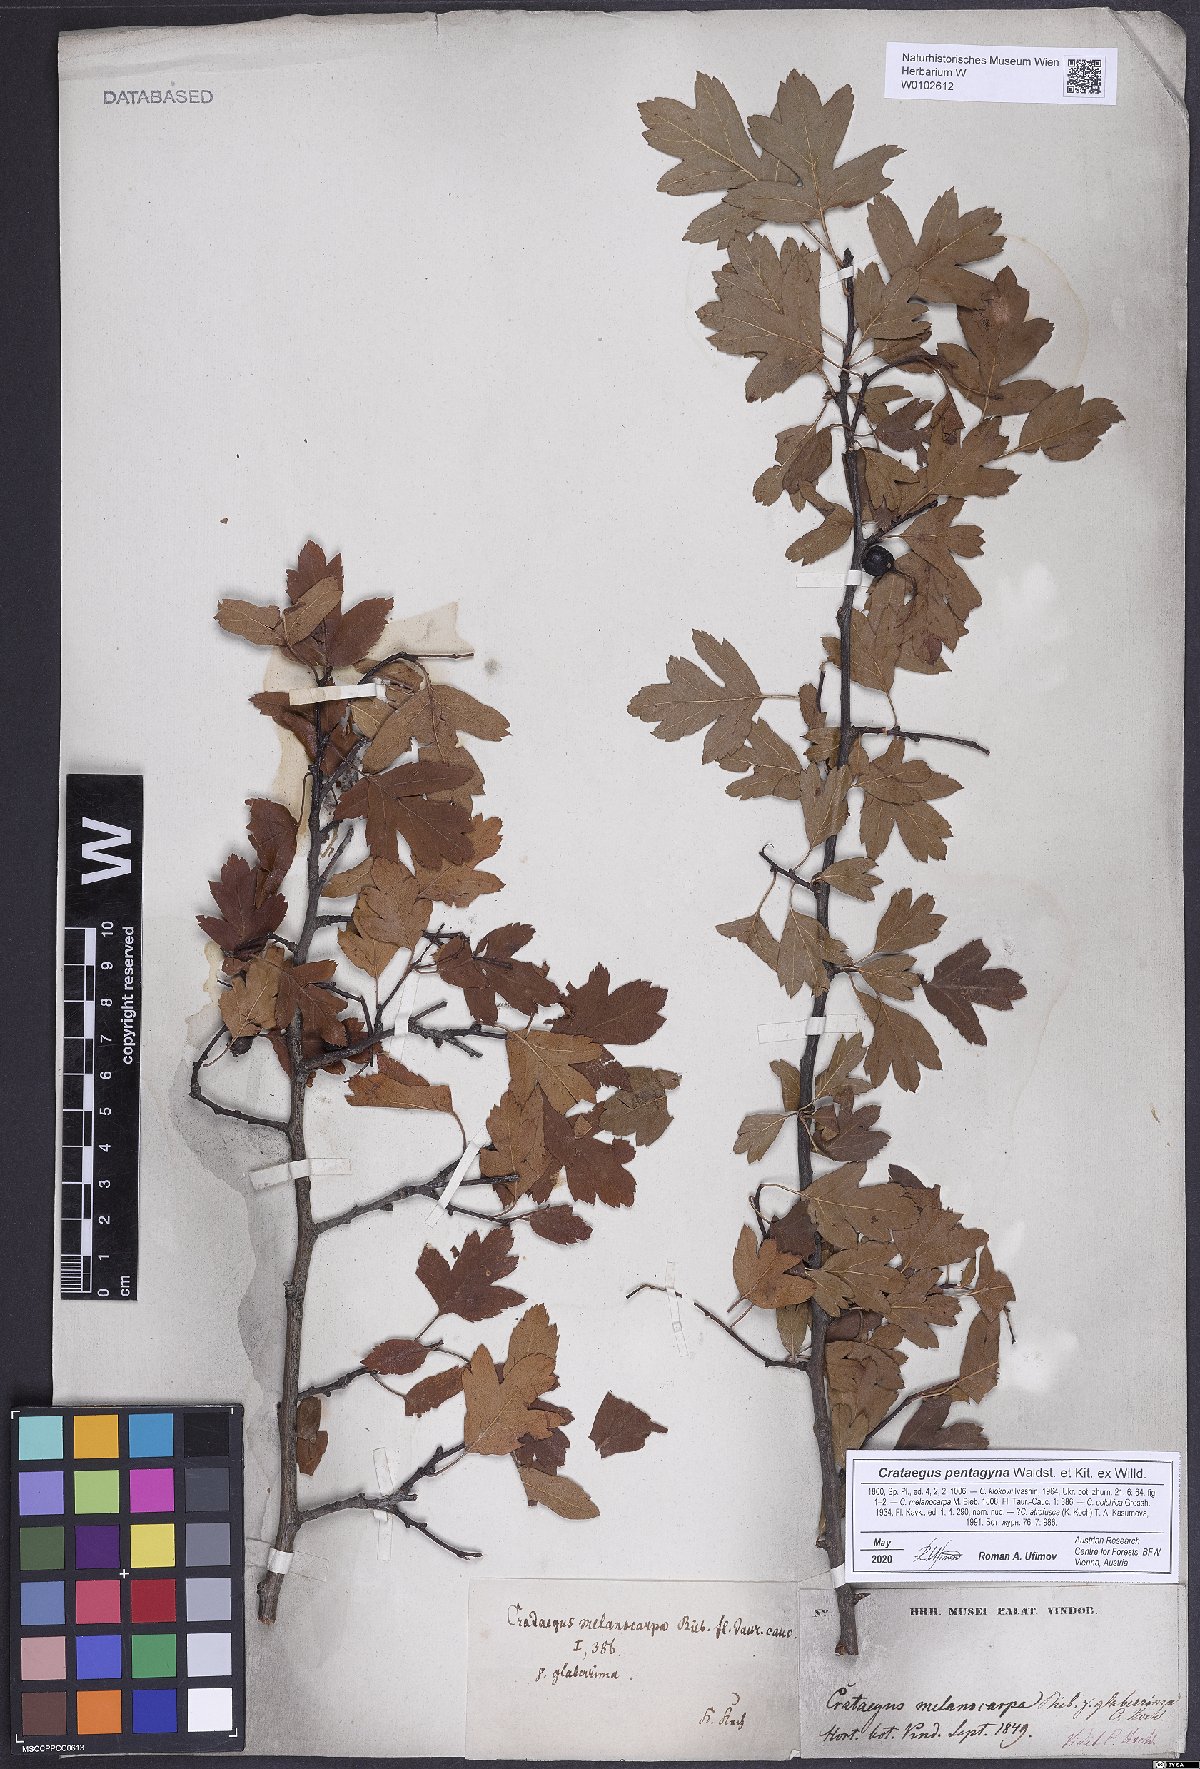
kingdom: Plantae
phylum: Tracheophyta
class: Magnoliopsida
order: Rosales
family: Rosaceae
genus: Crataegus
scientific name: Crataegus pentagyna
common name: Small-flowered black hawthorn
